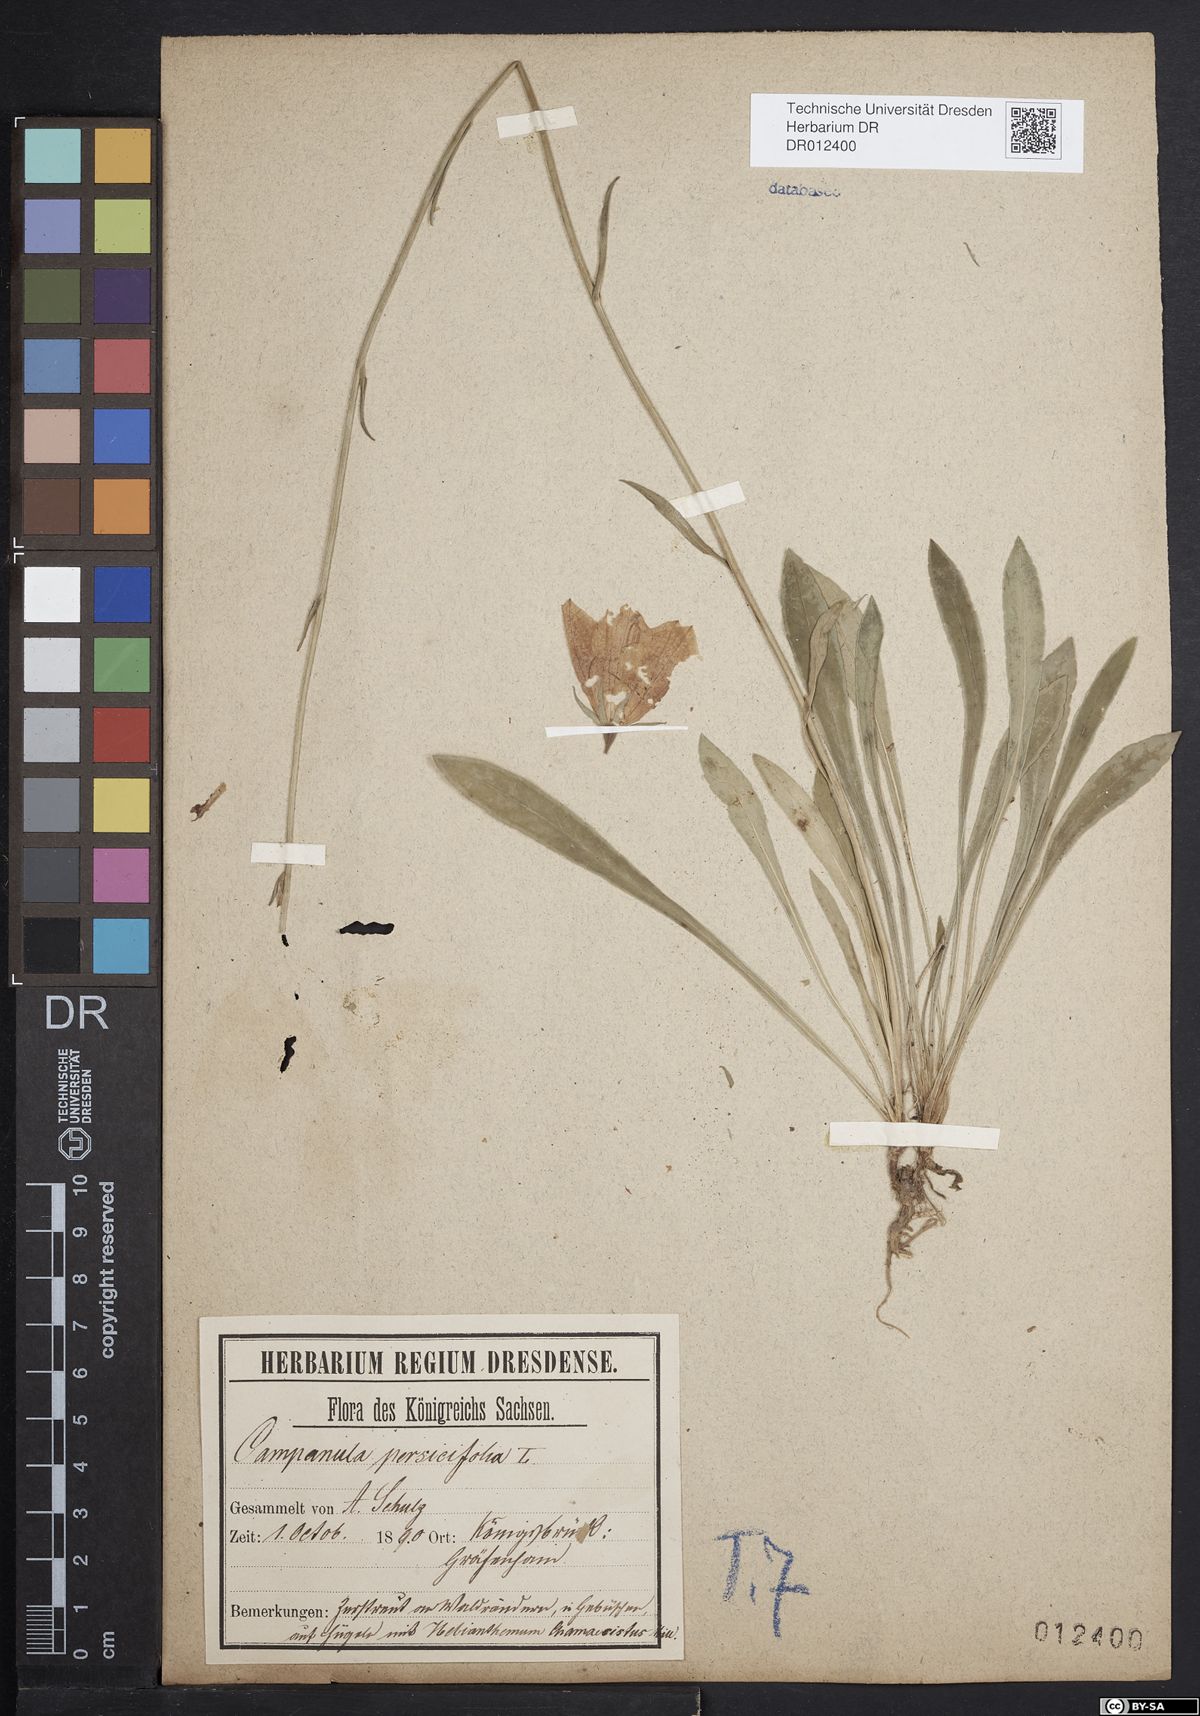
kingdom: Plantae
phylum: Tracheophyta
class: Magnoliopsida
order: Asterales
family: Campanulaceae
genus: Campanula
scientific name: Campanula persicifolia
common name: Peach-leaved bellflower
